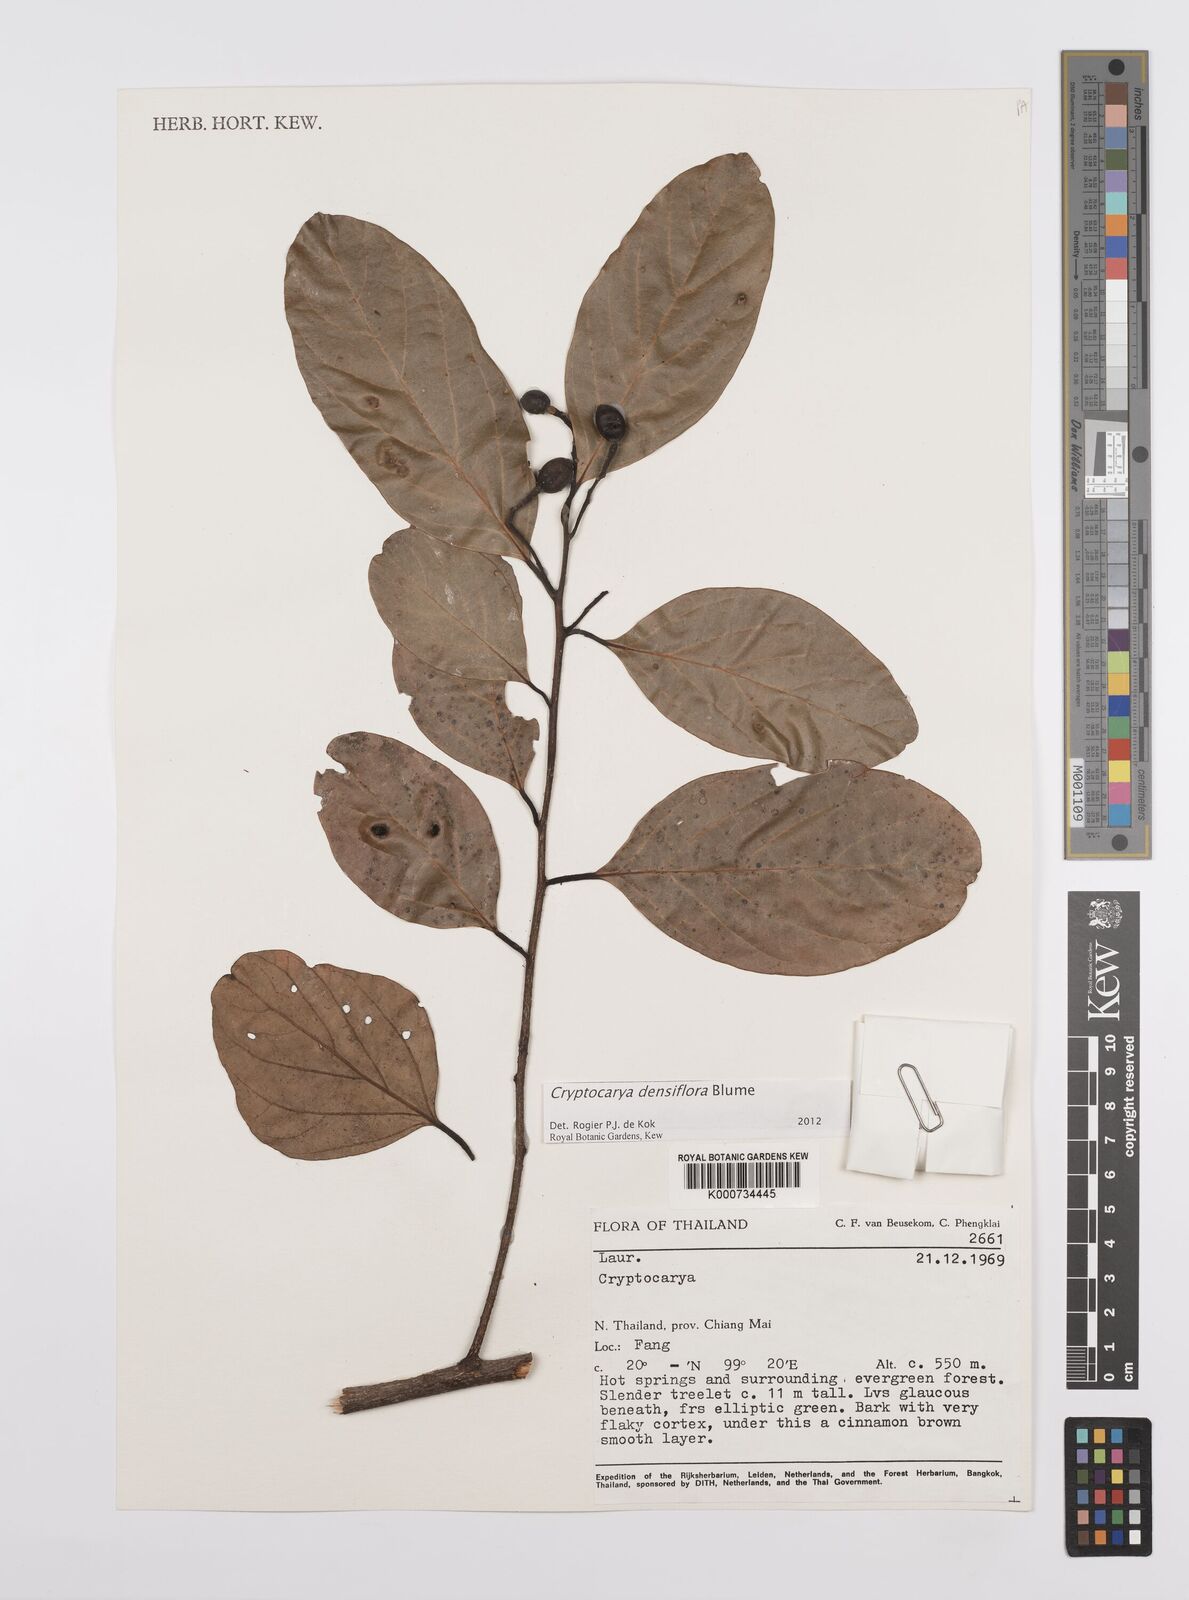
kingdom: Plantae
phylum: Tracheophyta
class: Magnoliopsida
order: Laurales
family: Lauraceae
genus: Cryptocarya
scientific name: Cryptocarya densiflora
